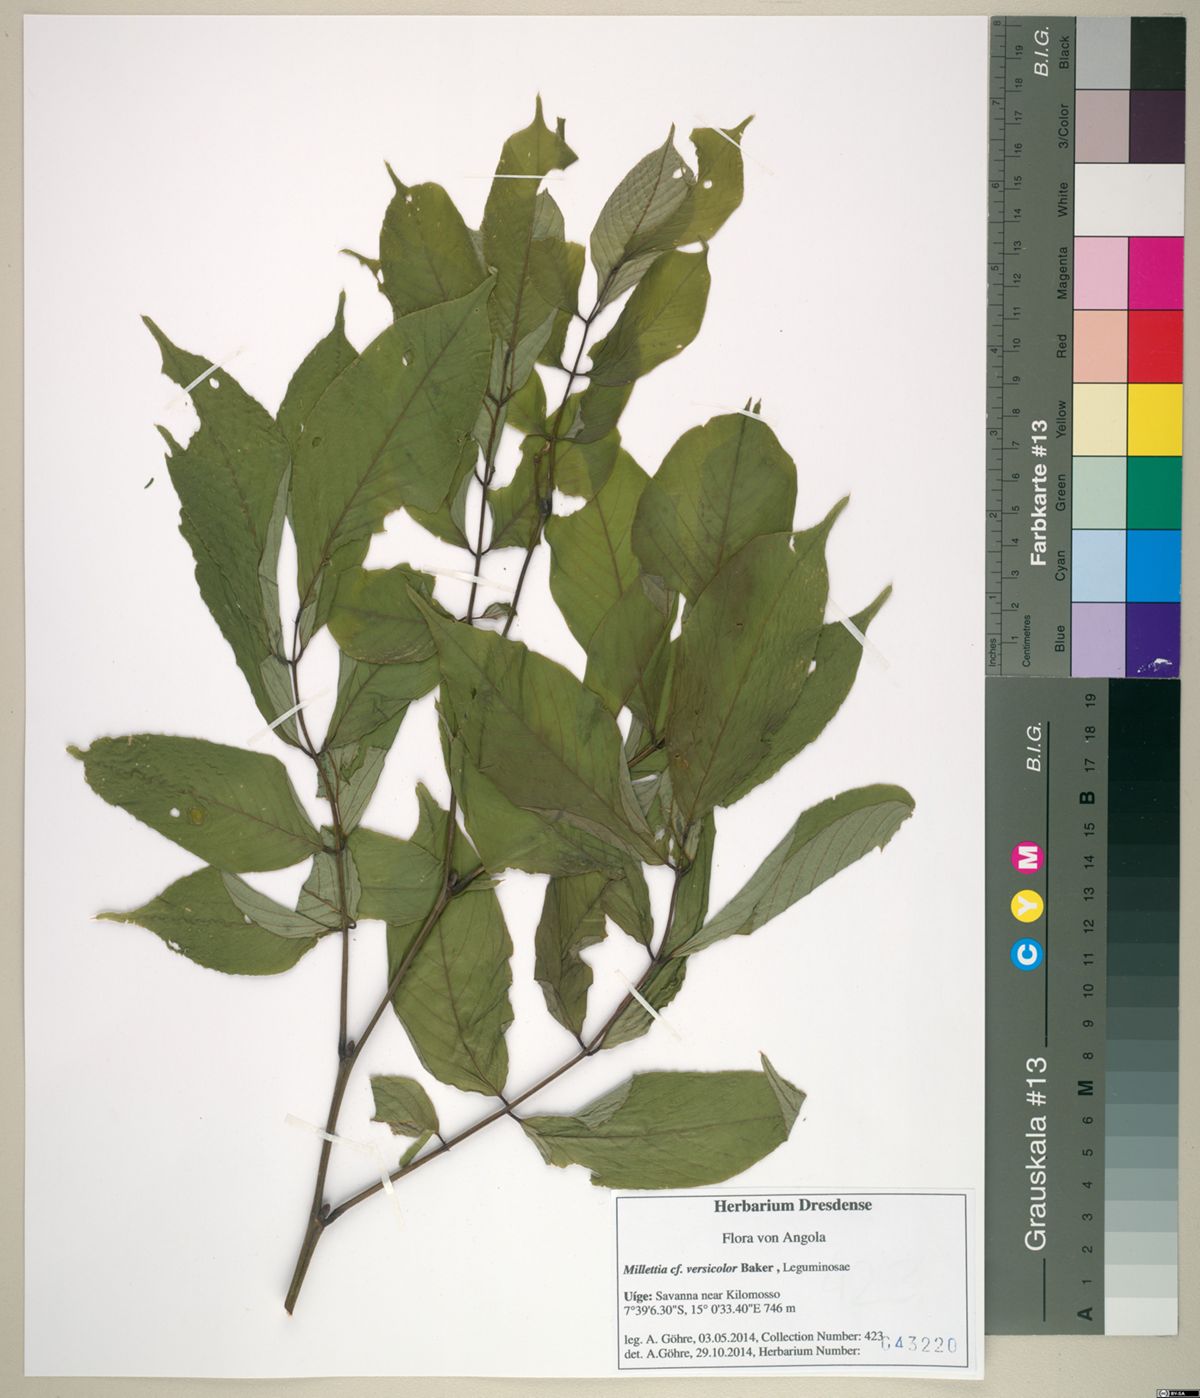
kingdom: Plantae
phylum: Tracheophyta
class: Magnoliopsida
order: Fabales
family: Fabaceae
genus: Millettia
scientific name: Millettia versicolor
